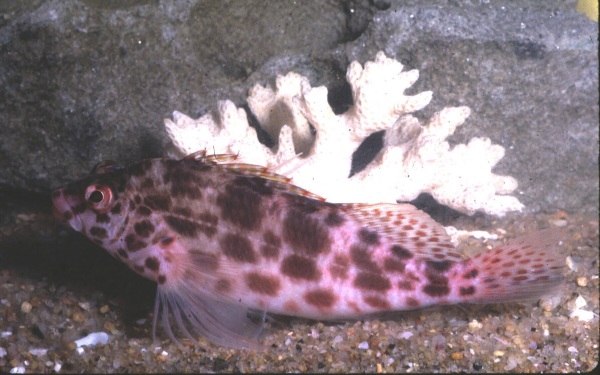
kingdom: Animalia
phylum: Chordata
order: Perciformes
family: Cirrhitidae
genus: Cirrhitichthys
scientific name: Cirrhitichthys oxycephalus
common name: Spotted hawkfish
